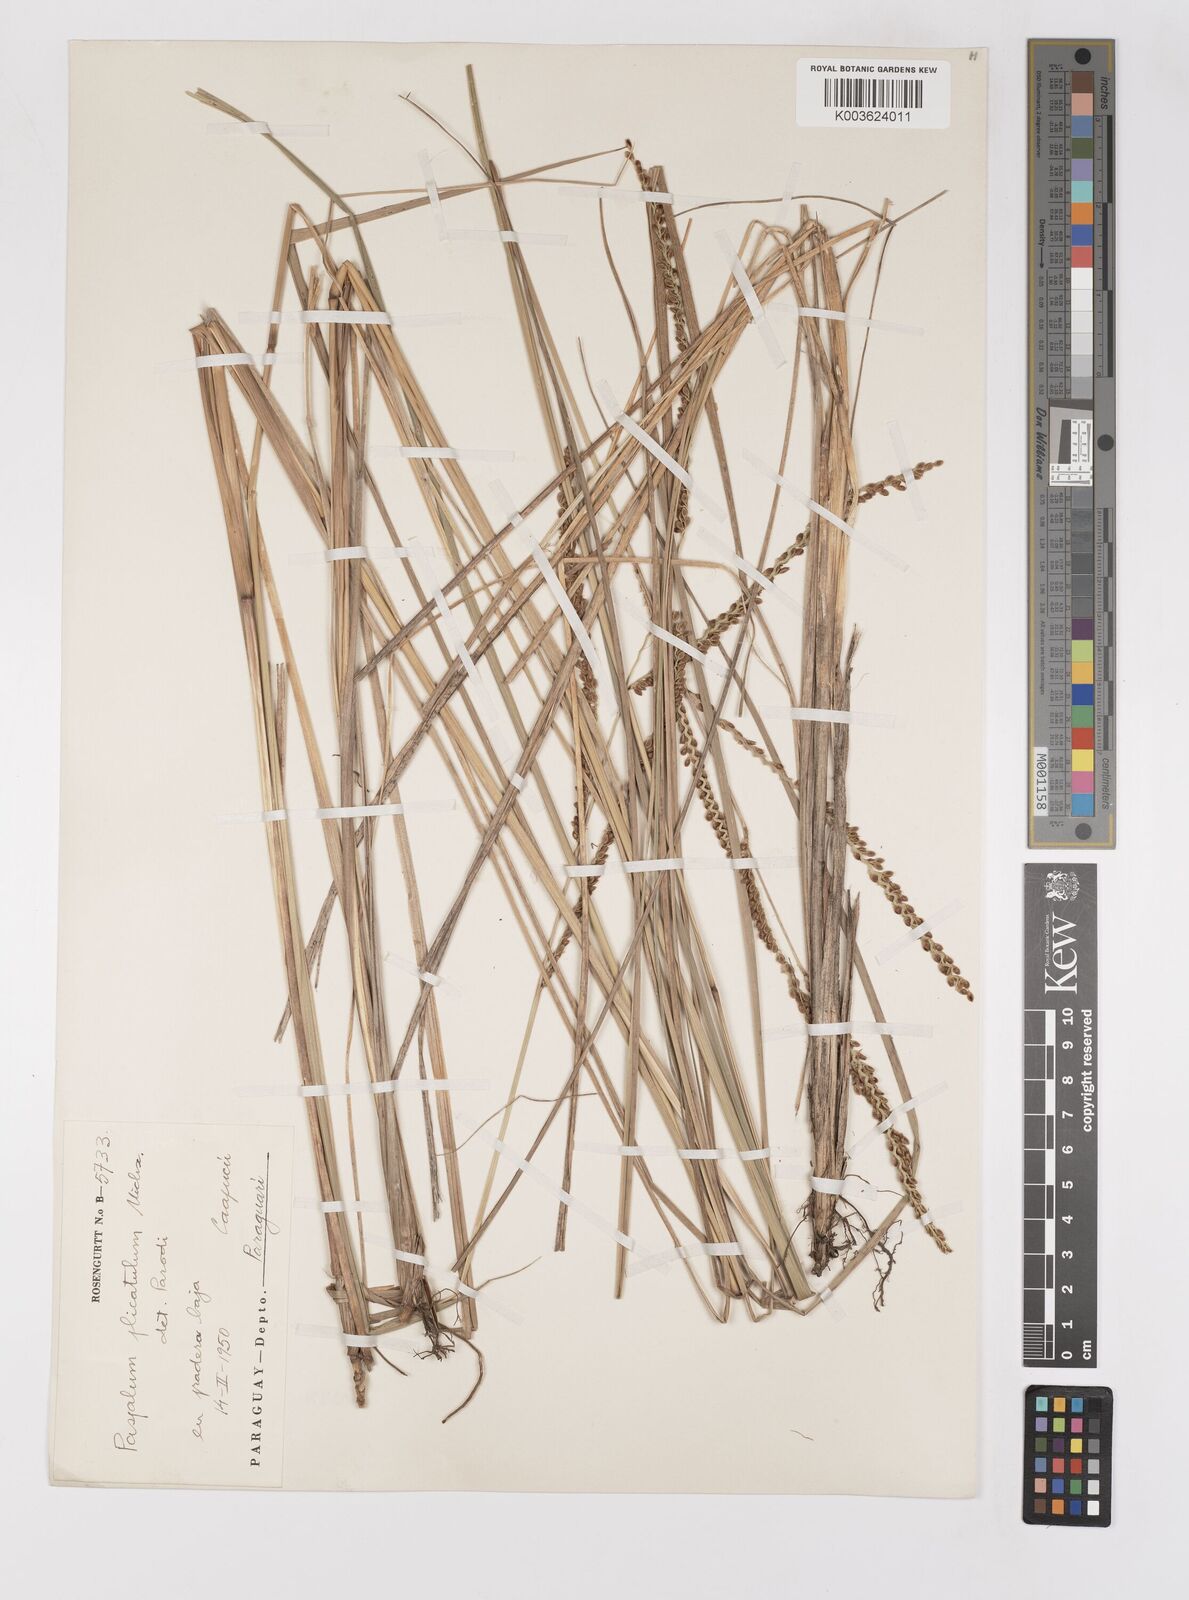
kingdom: Plantae
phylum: Tracheophyta
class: Liliopsida
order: Poales
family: Poaceae
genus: Paspalum
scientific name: Paspalum glaucescens
